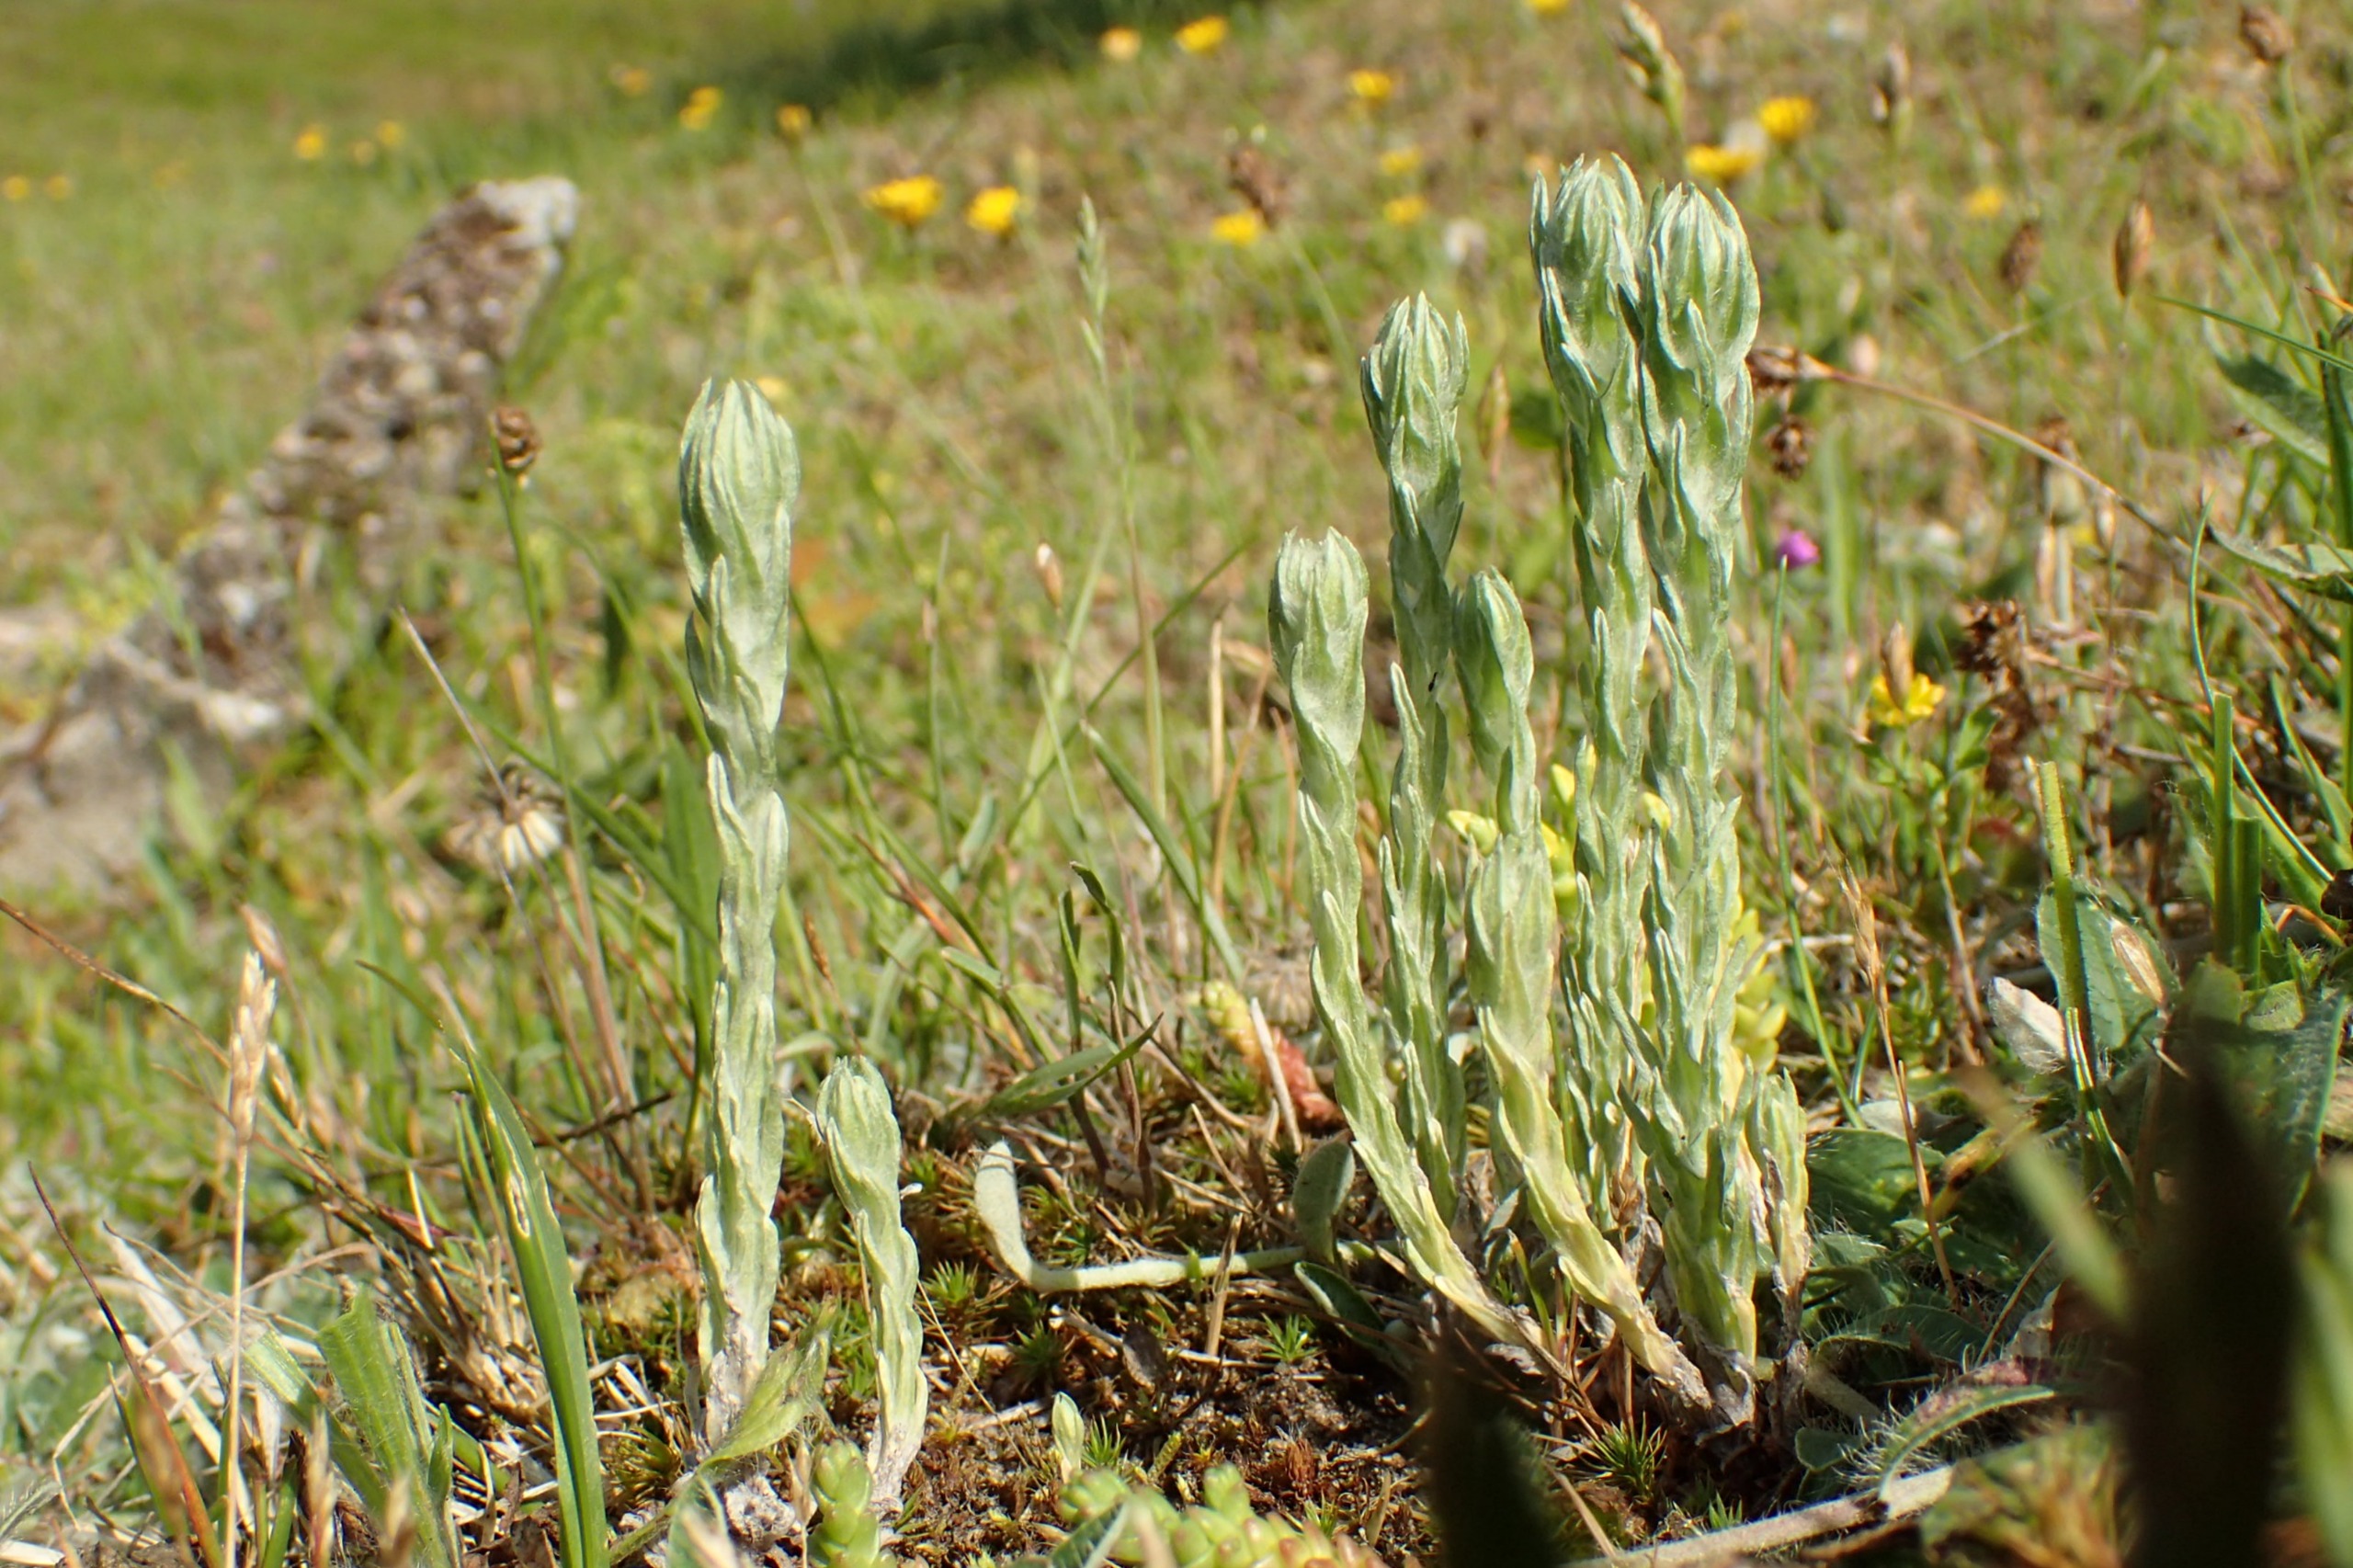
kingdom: Plantae
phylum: Tracheophyta
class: Magnoliopsida
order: Asterales
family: Asteraceae
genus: Filago
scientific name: Filago germanica
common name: Kugle-museurt
